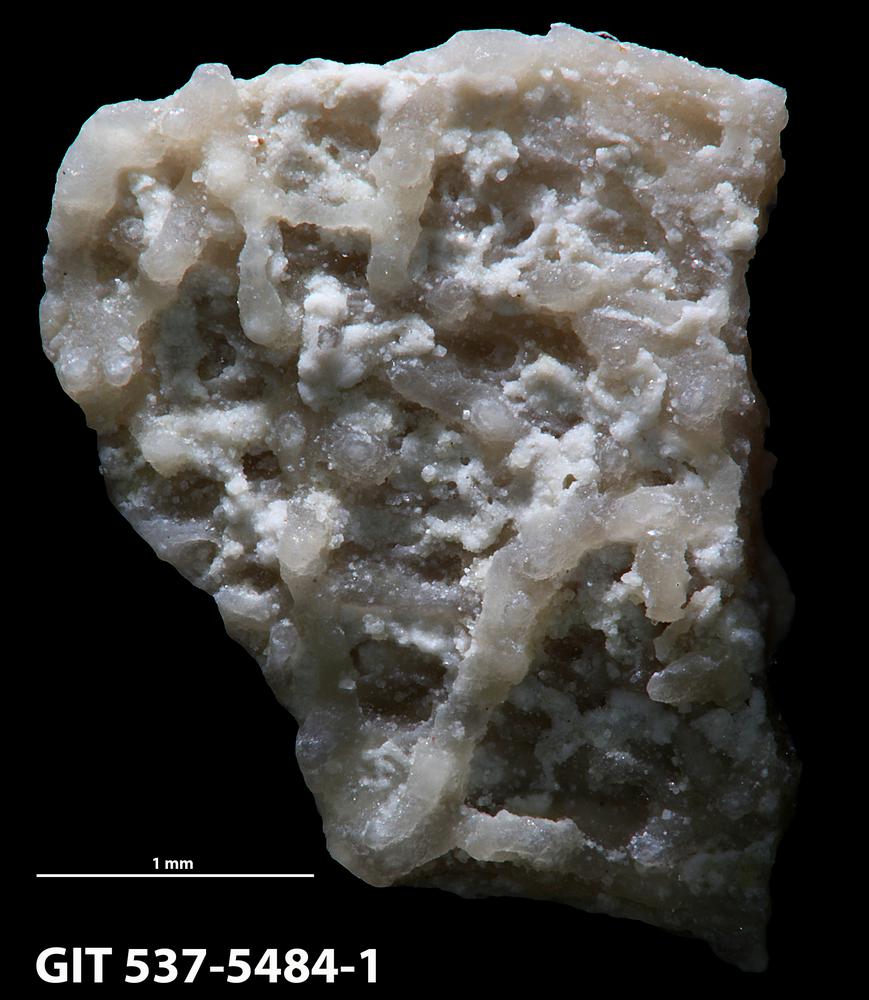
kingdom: Animalia
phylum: Bryozoa
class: Stenolaemata
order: Cyclostomatida
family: Corynotrypidae
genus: Corynotrypa
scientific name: Corynotrypa
